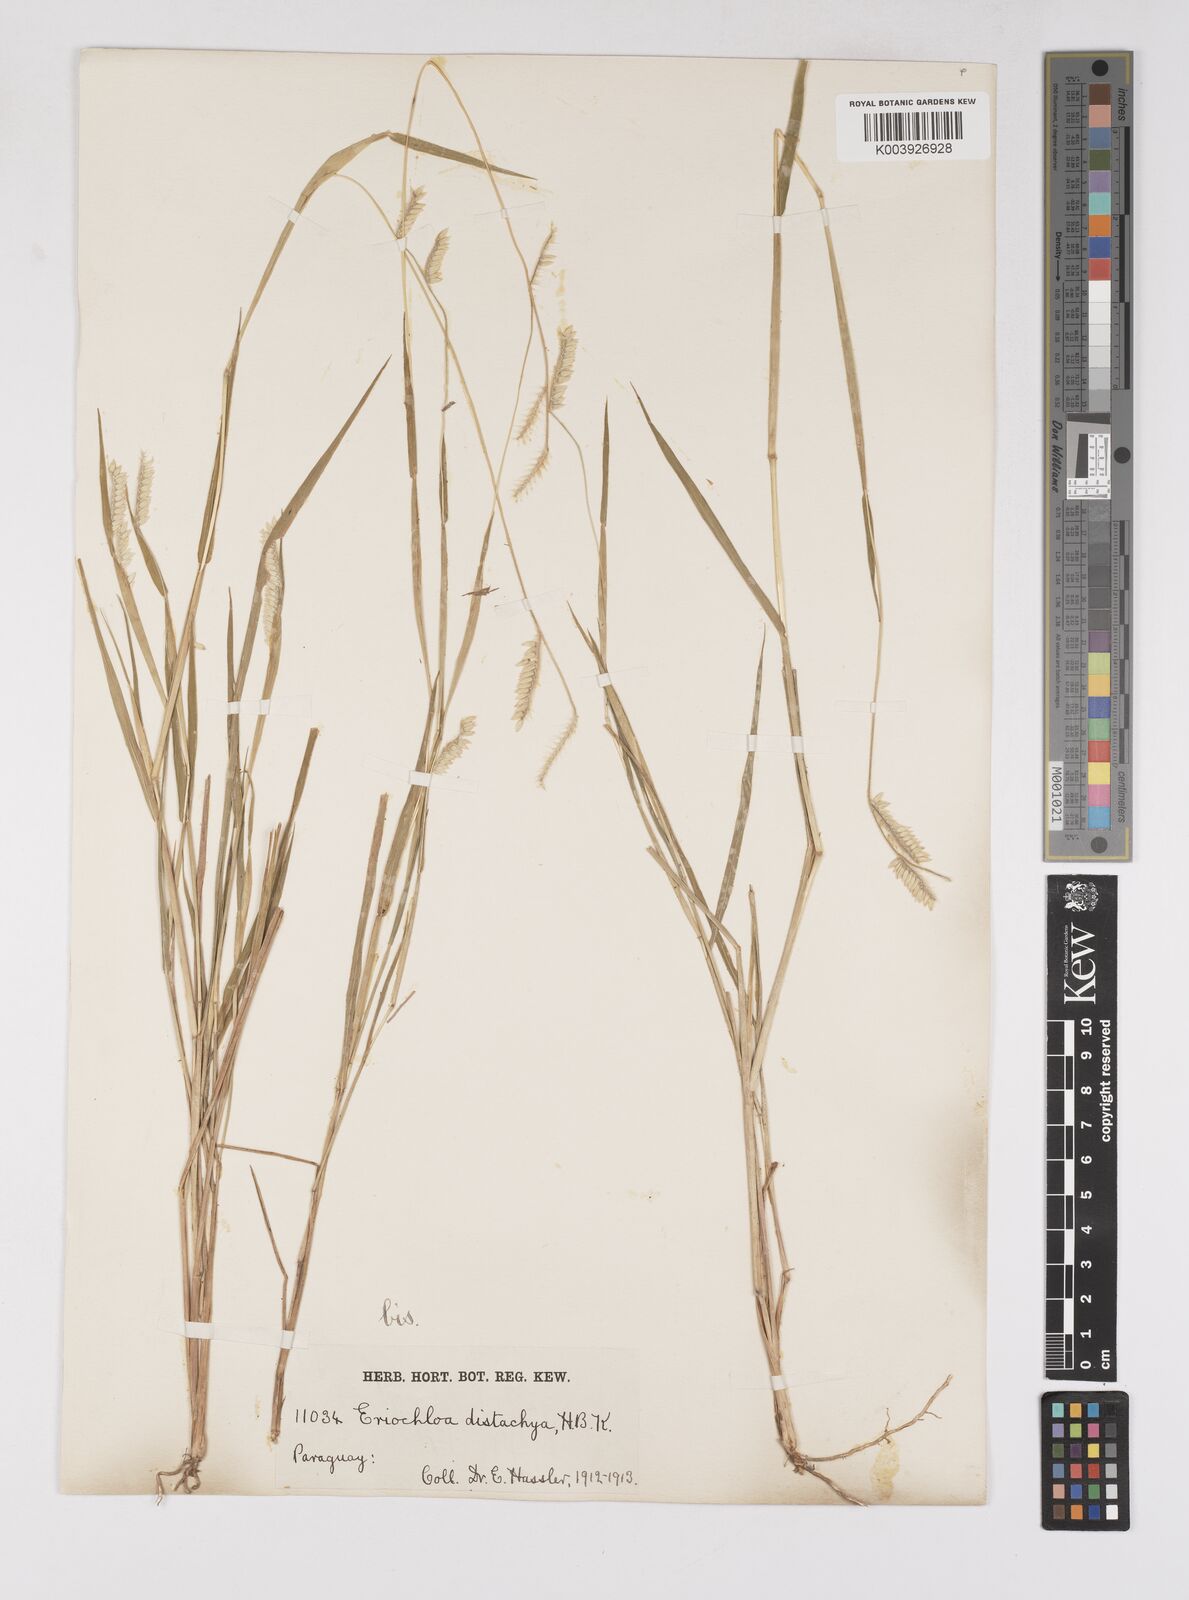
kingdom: Plantae
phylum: Tracheophyta
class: Liliopsida
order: Poales
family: Poaceae
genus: Eriochloa
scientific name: Eriochloa distachya
